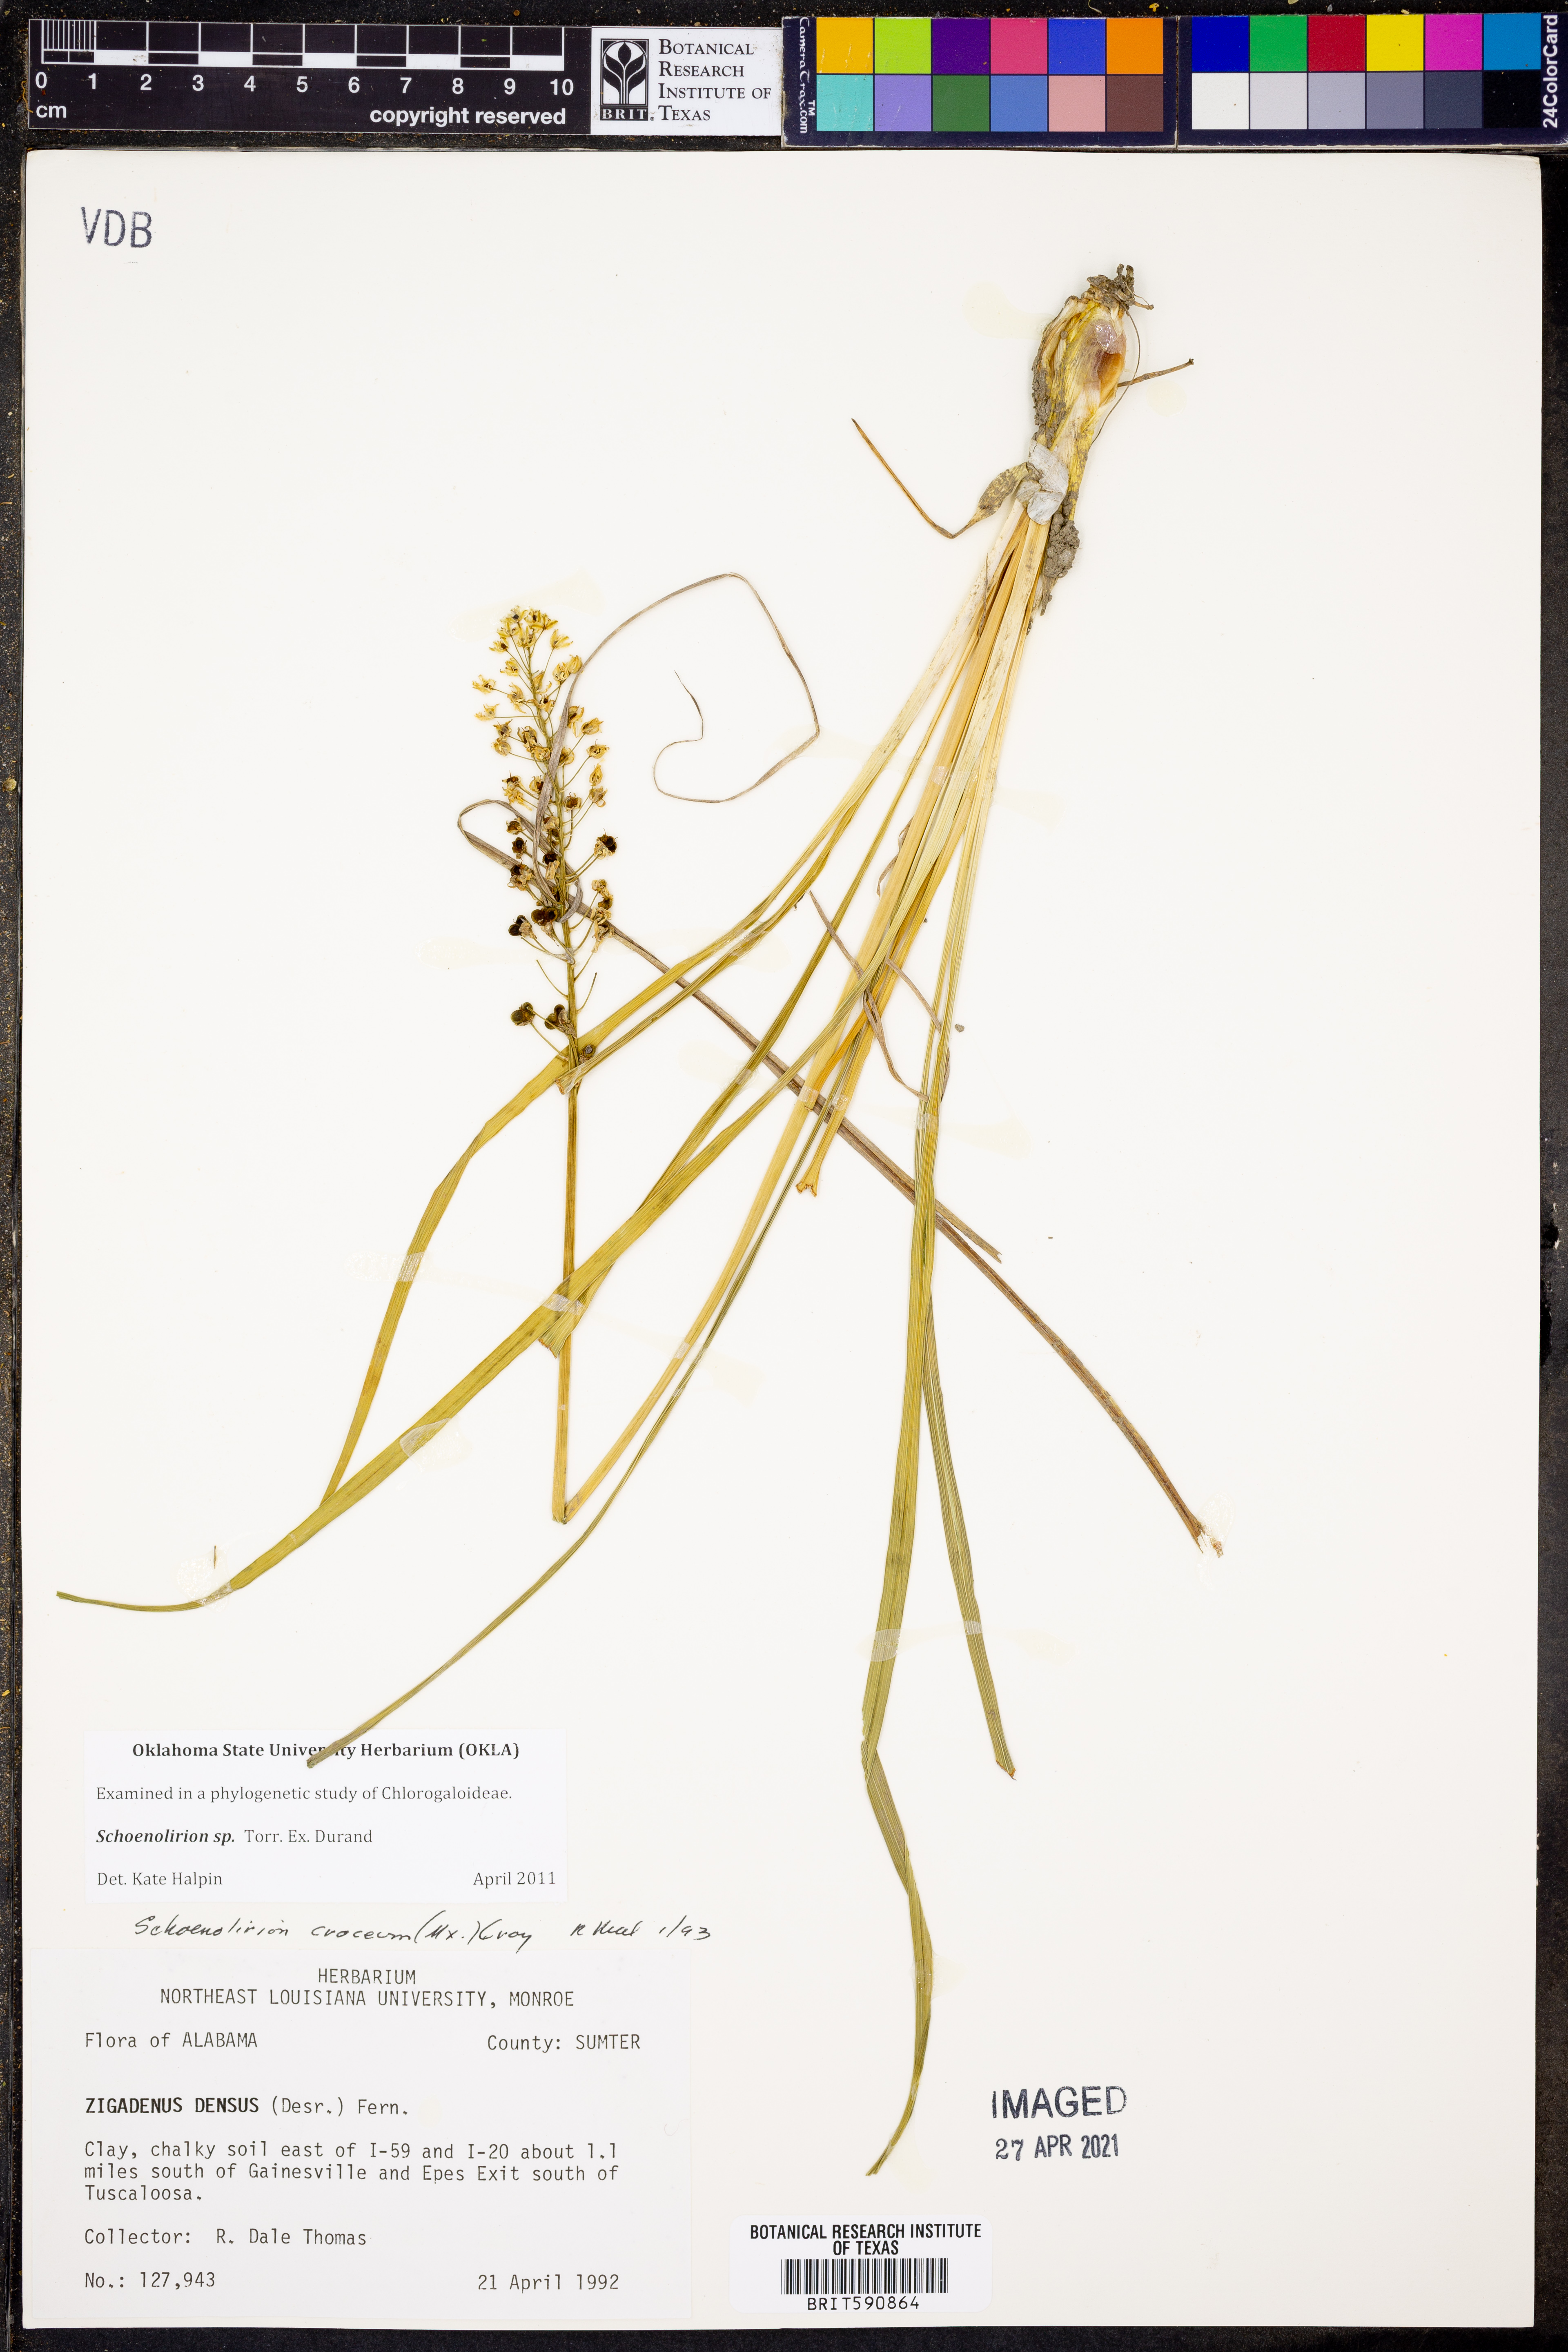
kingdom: Plantae
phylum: Tracheophyta
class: Liliopsida
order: Asparagales
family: Asparagaceae
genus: Schoenolirion
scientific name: Schoenolirion
